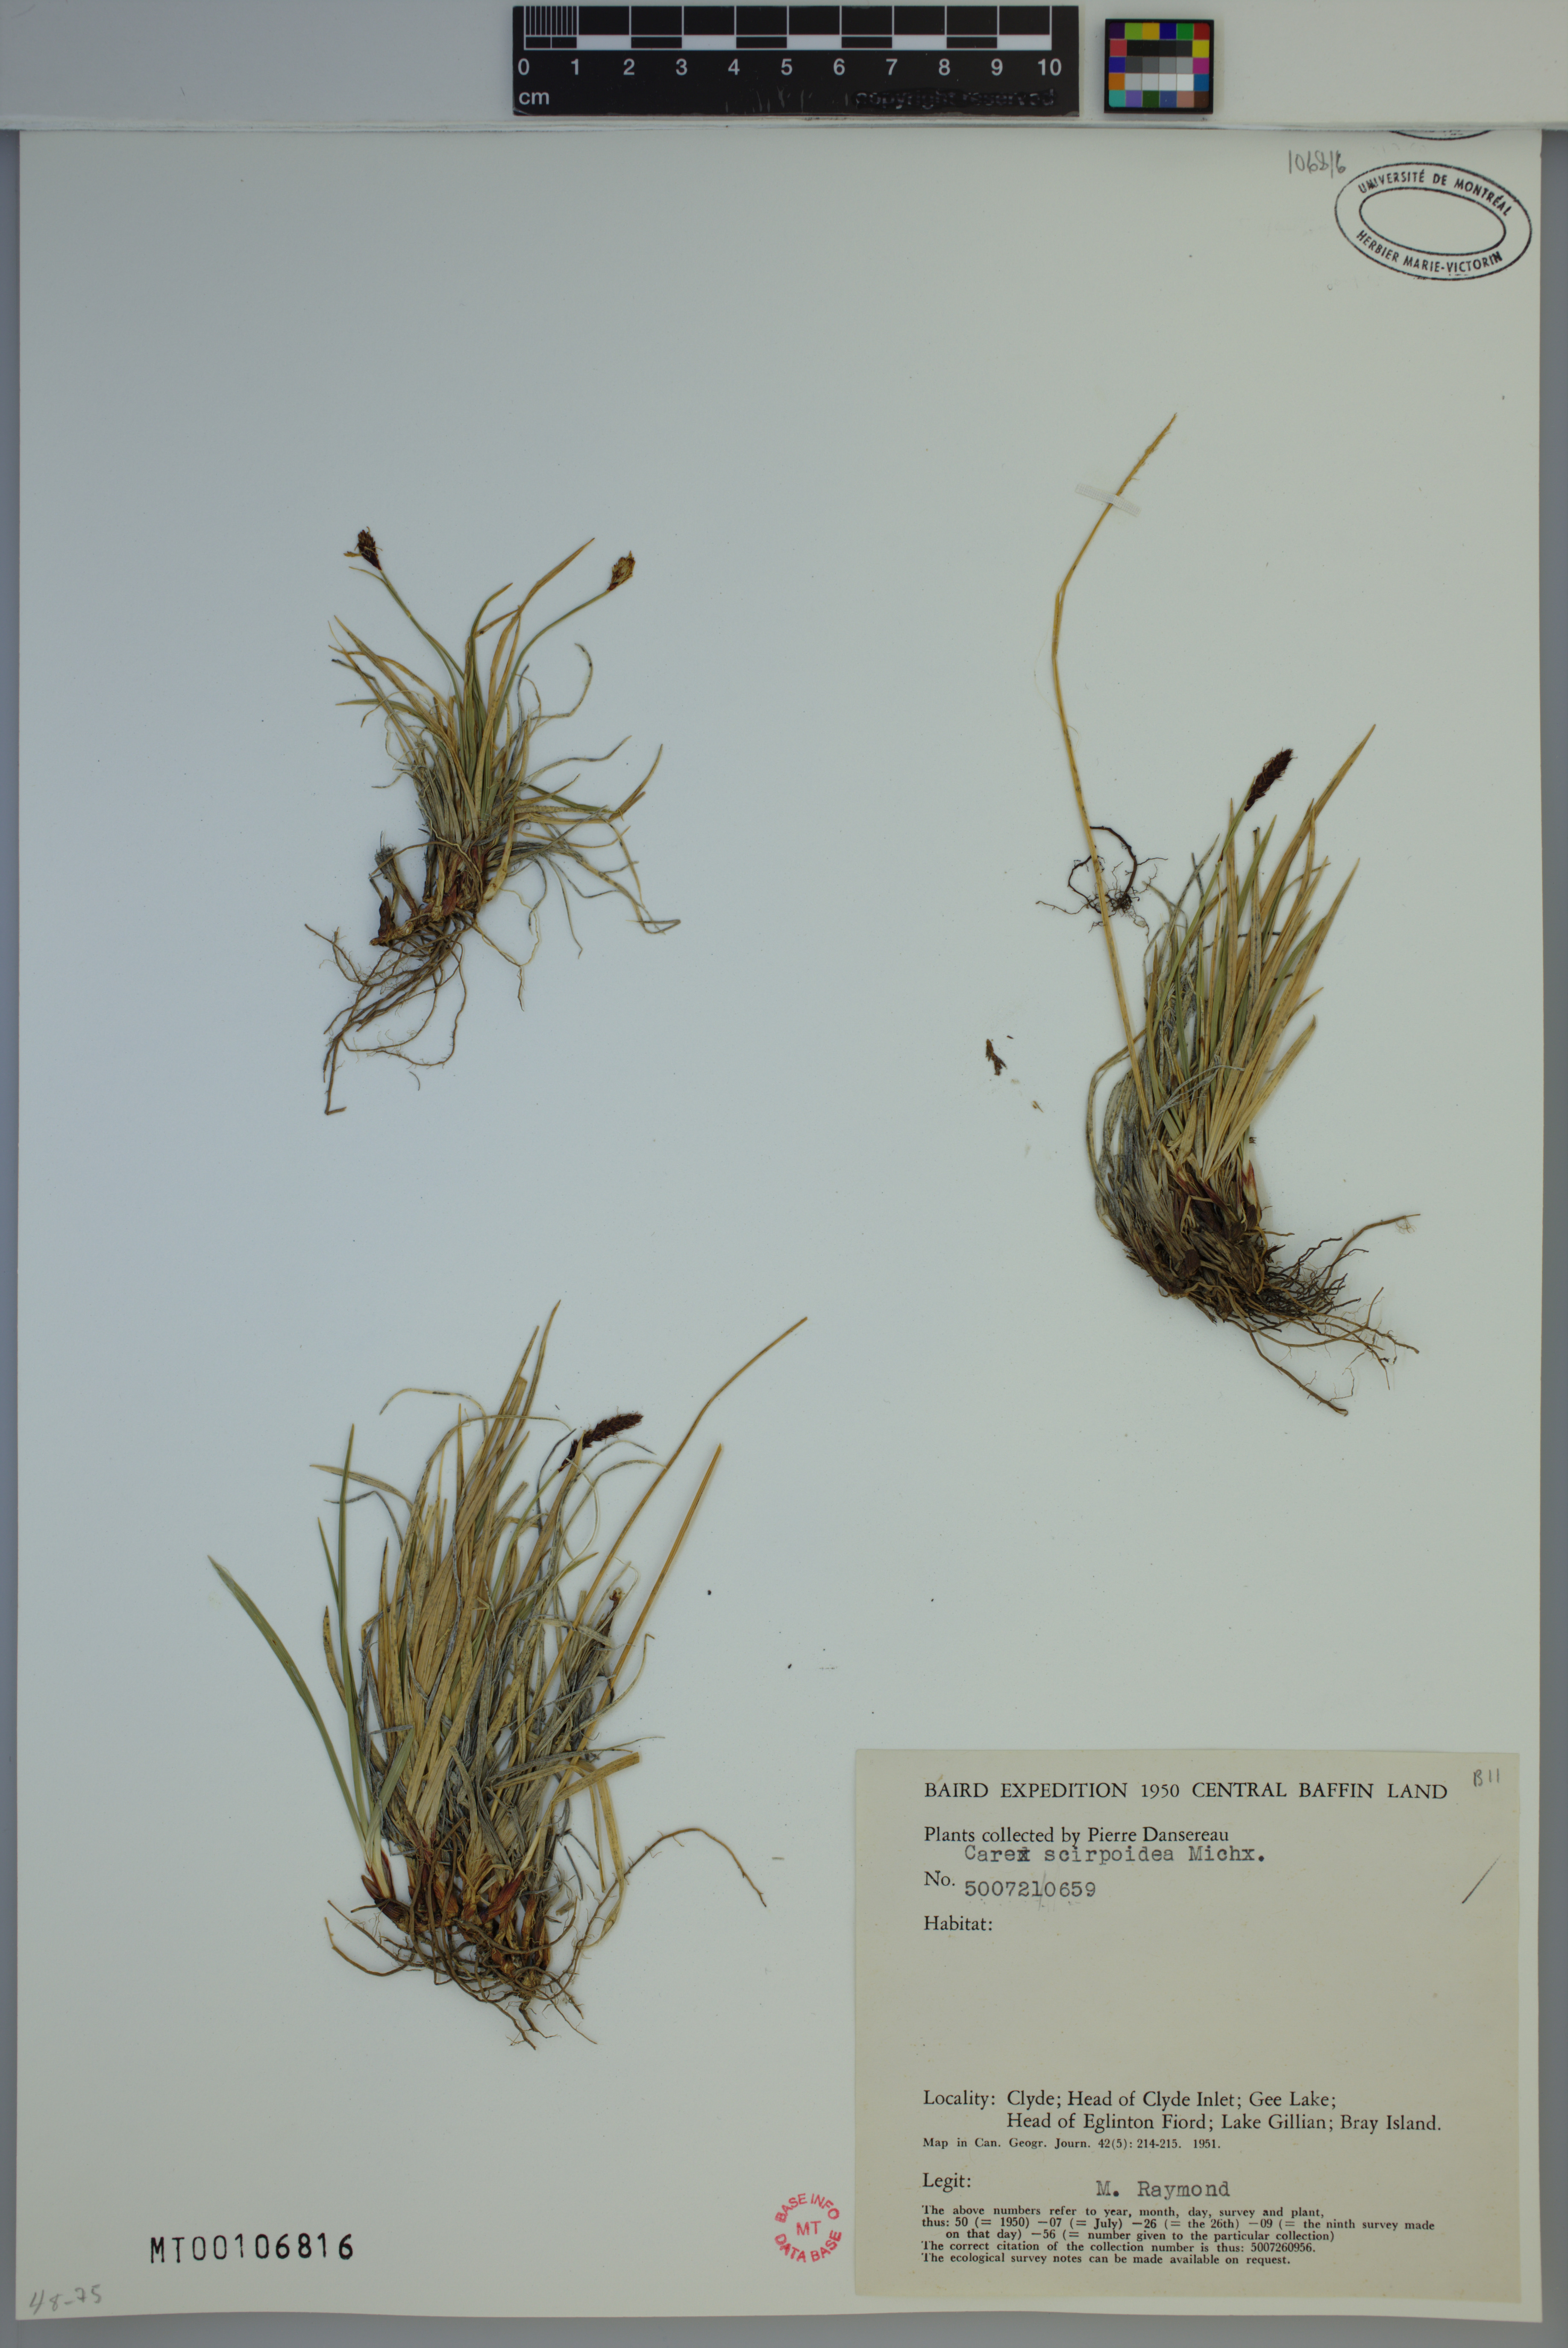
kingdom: Plantae
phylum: Tracheophyta
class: Liliopsida
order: Poales
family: Cyperaceae
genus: Carex
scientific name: Carex scirpoidea
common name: Canada single-spike sedge
